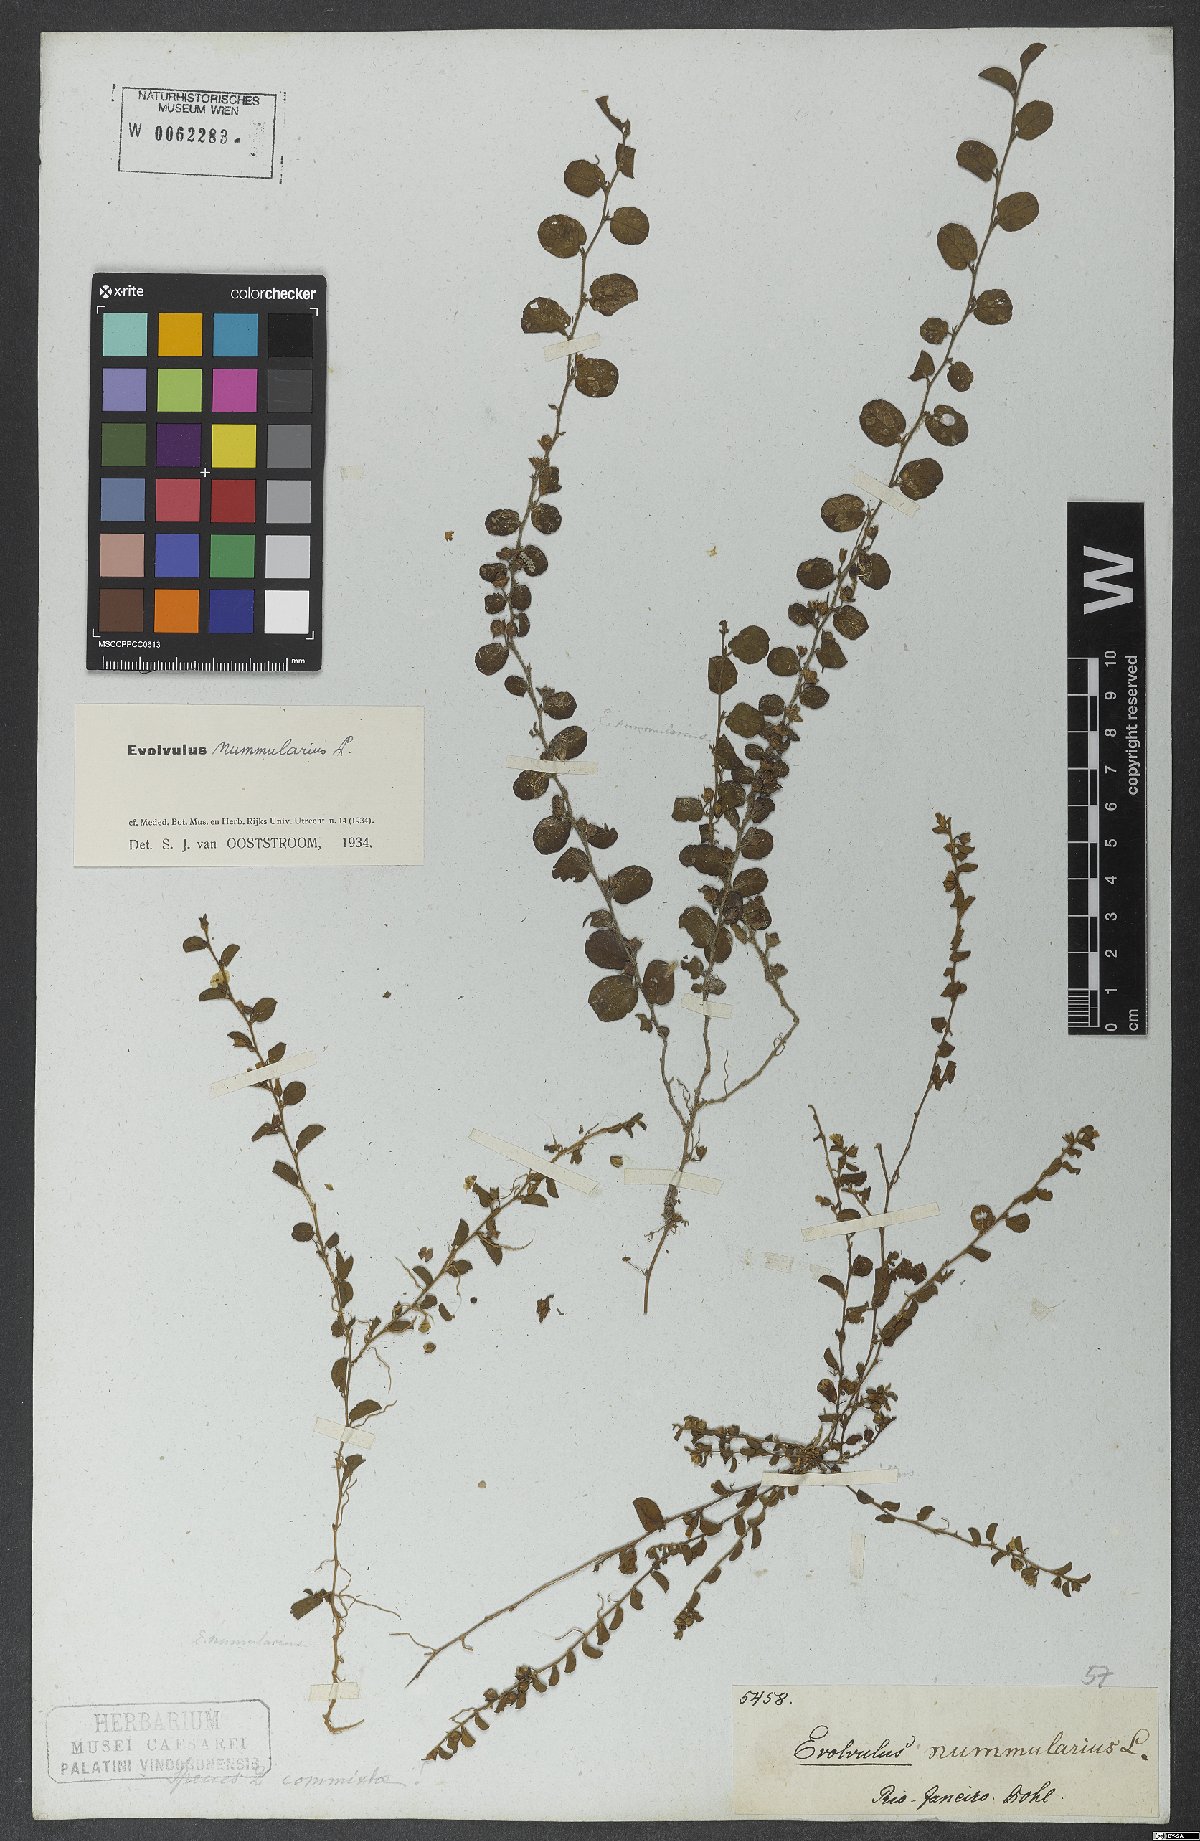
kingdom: Plantae
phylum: Tracheophyta
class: Magnoliopsida
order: Solanales
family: Convolvulaceae
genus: Evolvulus
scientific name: Evolvulus nummularius
